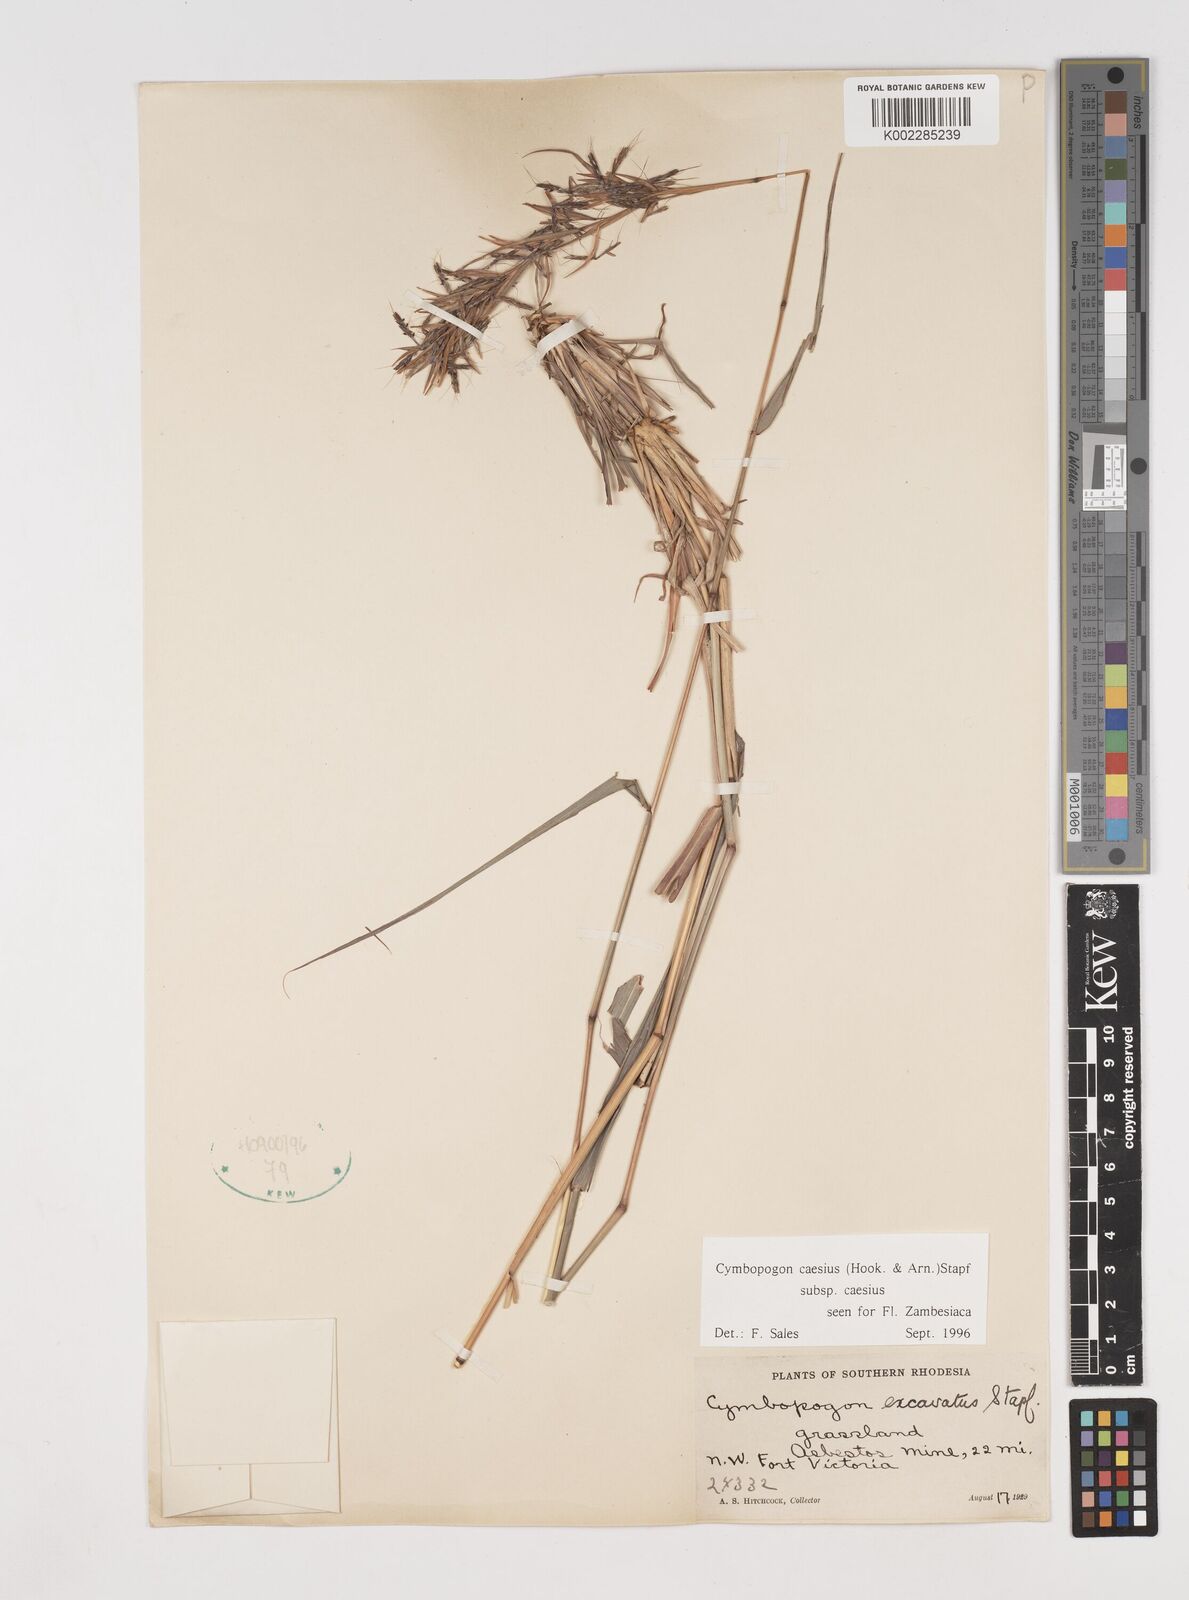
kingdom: Plantae
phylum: Tracheophyta
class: Liliopsida
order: Poales
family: Poaceae
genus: Cymbopogon
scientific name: Cymbopogon caesius
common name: Kachi grass
